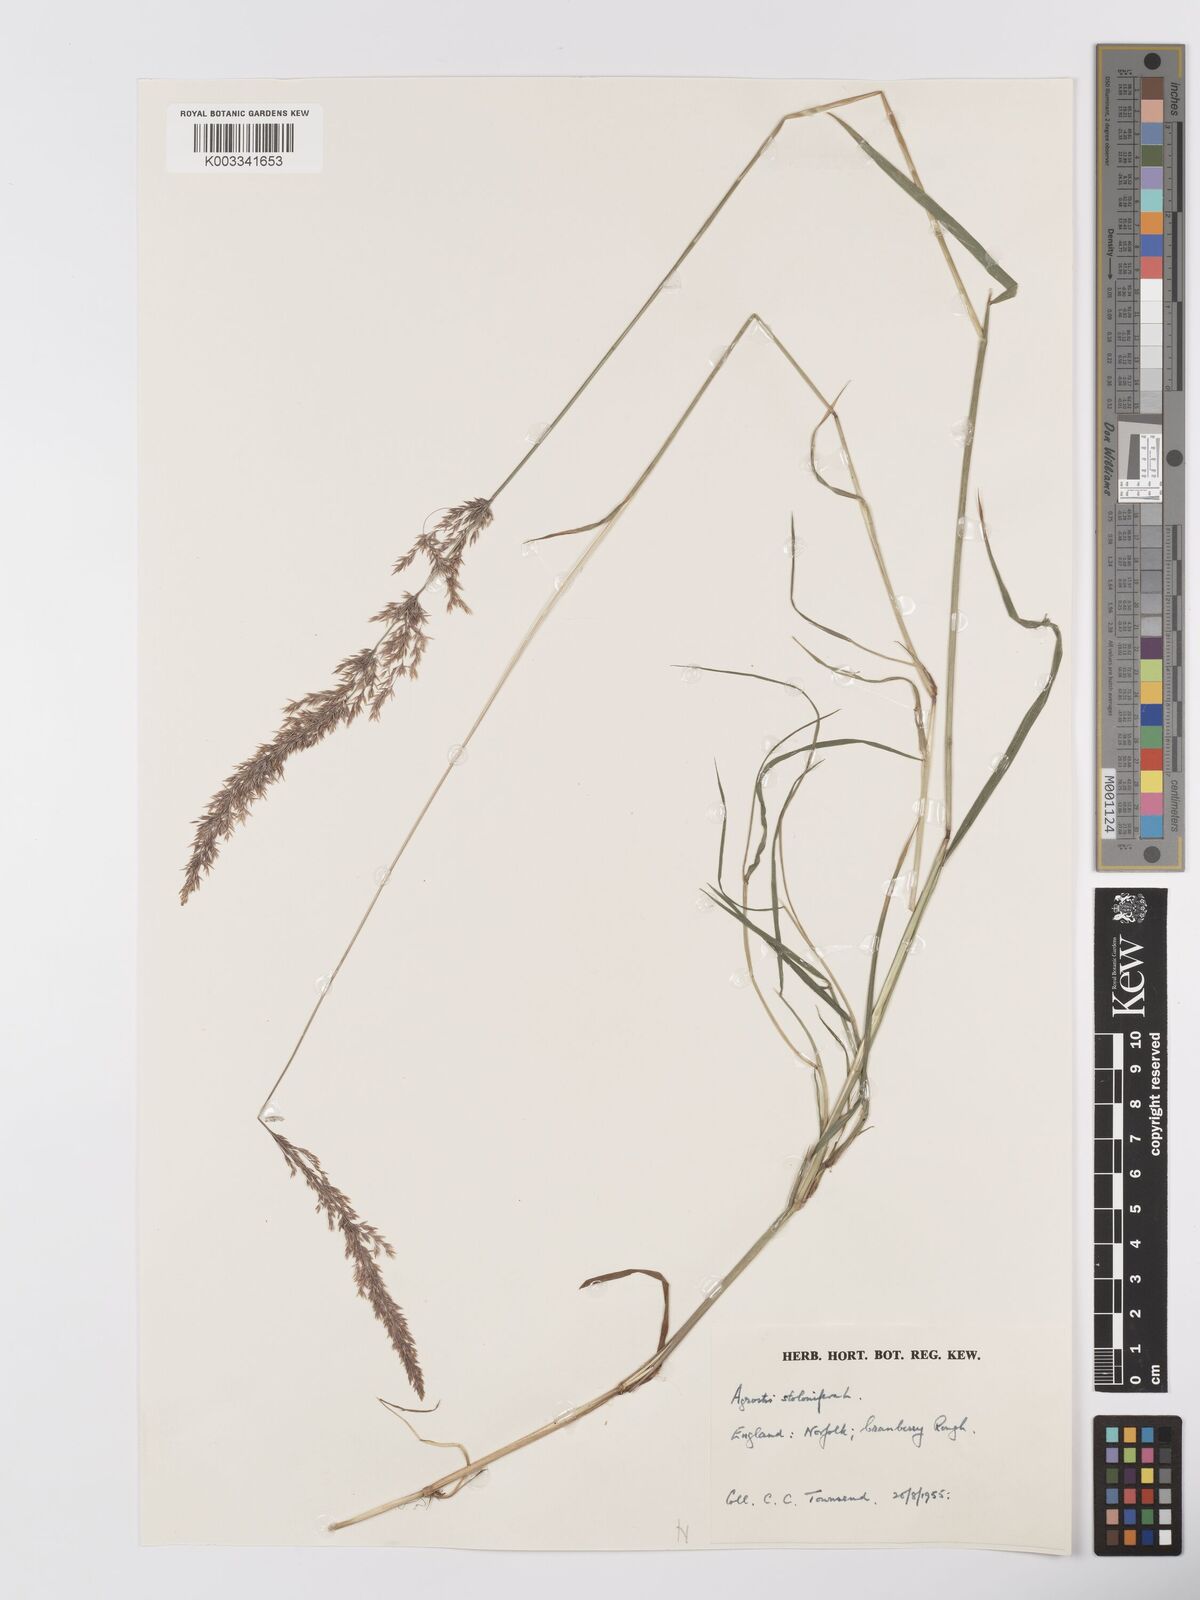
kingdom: Plantae
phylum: Tracheophyta
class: Liliopsida
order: Poales
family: Poaceae
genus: Agrostis
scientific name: Agrostis stolonifera
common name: Creeping bentgrass
